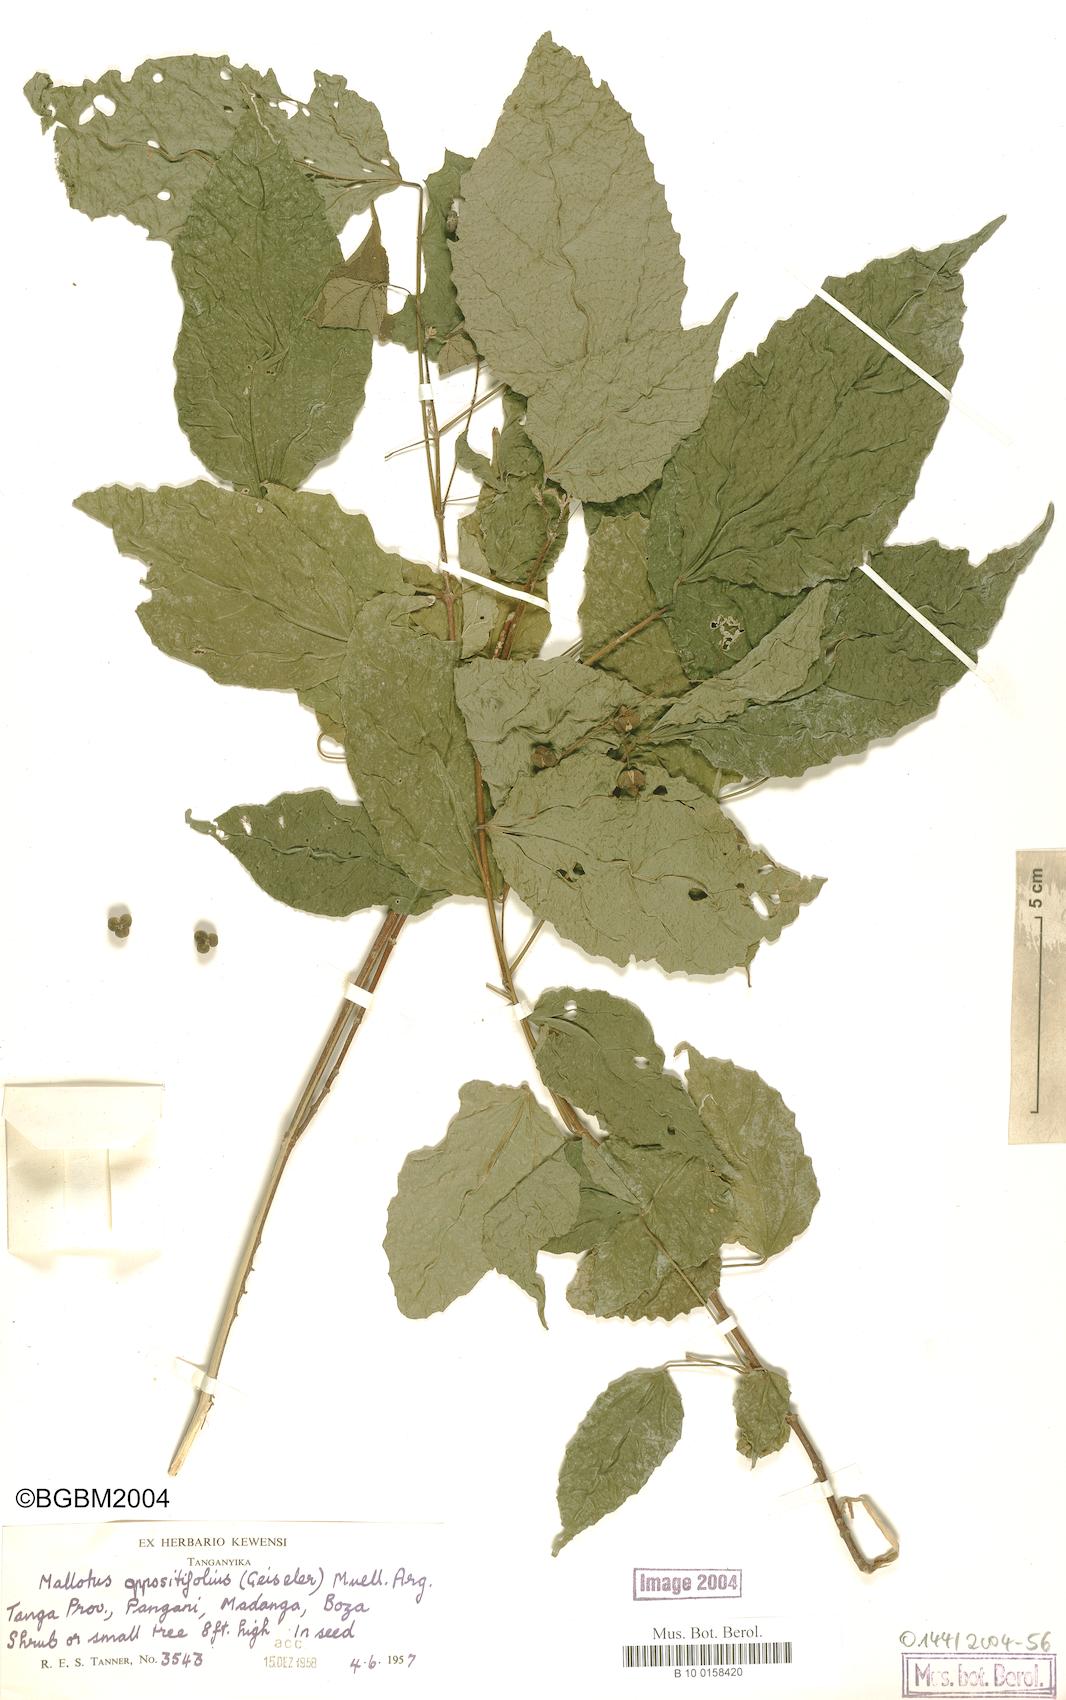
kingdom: Plantae
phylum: Tracheophyta
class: Magnoliopsida
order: Malpighiales
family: Euphorbiaceae
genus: Mallotus
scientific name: Mallotus oppositifolius
